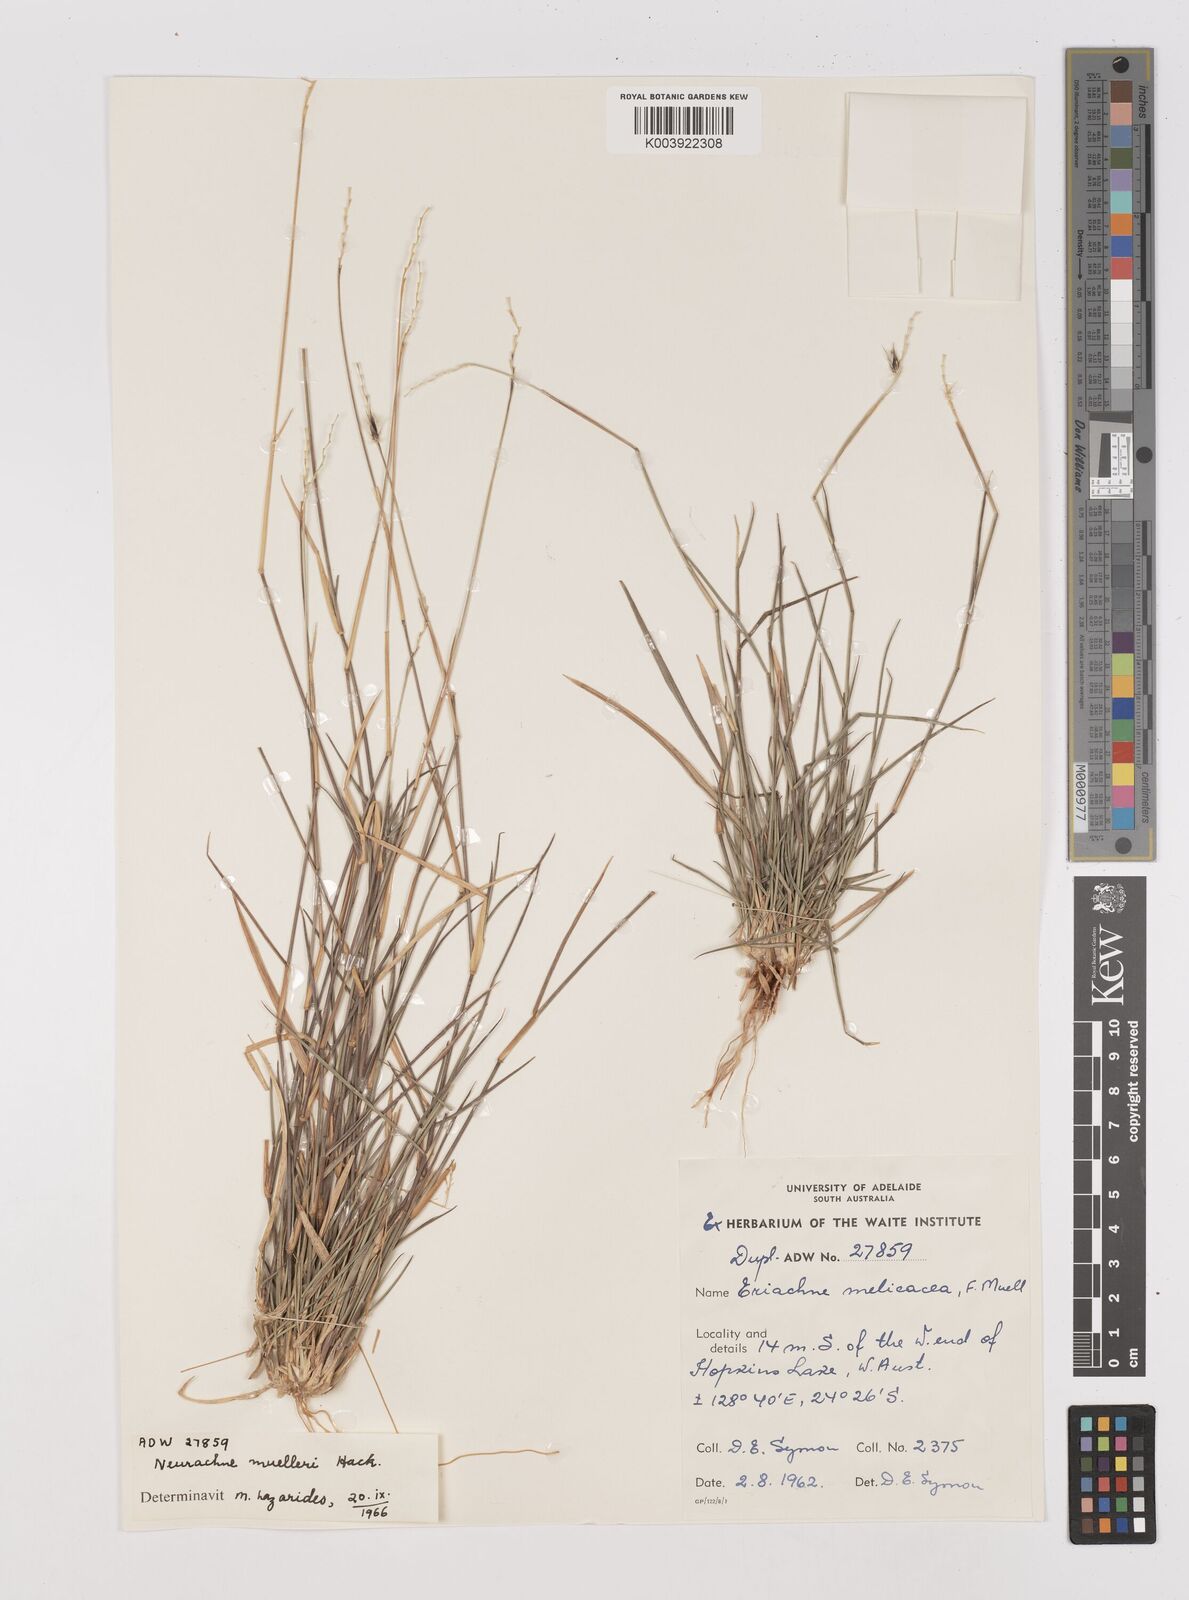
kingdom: Plantae
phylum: Tracheophyta
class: Liliopsida
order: Poales
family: Poaceae
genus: Neurachne
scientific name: Neurachne muelleri
